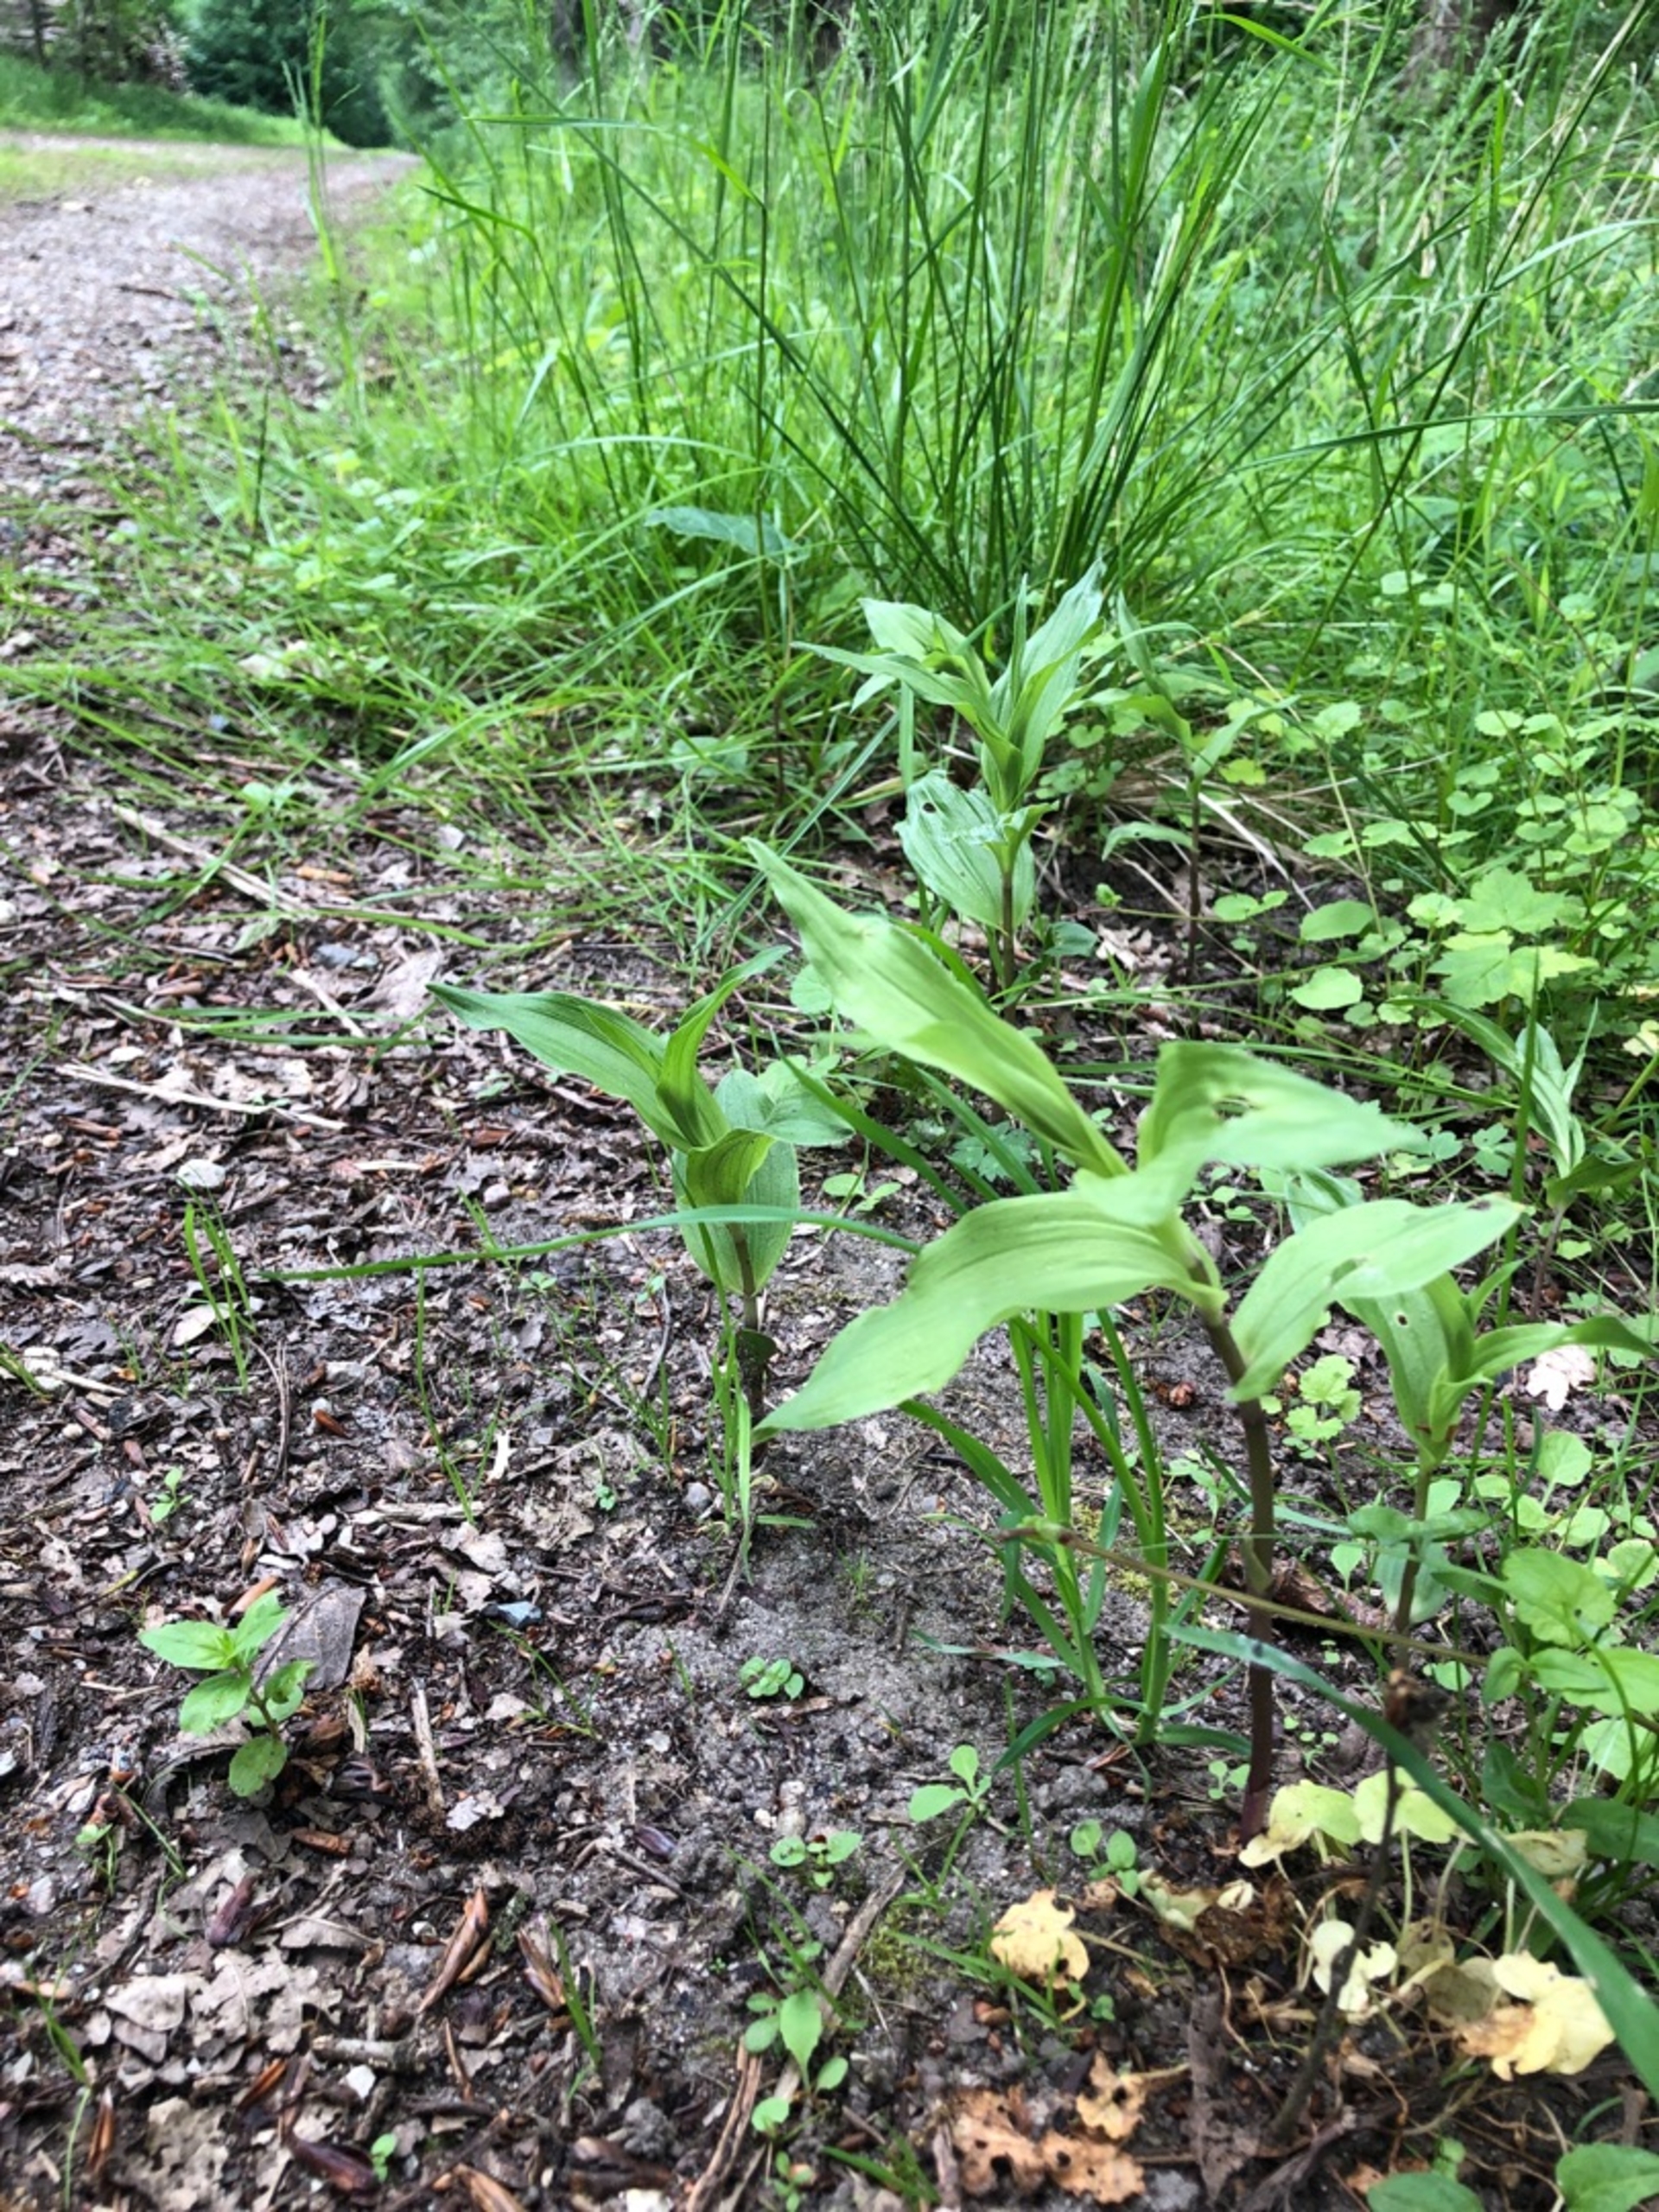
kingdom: Plantae
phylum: Tracheophyta
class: Liliopsida
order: Asparagales
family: Orchidaceae
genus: Epipactis
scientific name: Epipactis helleborine
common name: Skov-hullæbe
